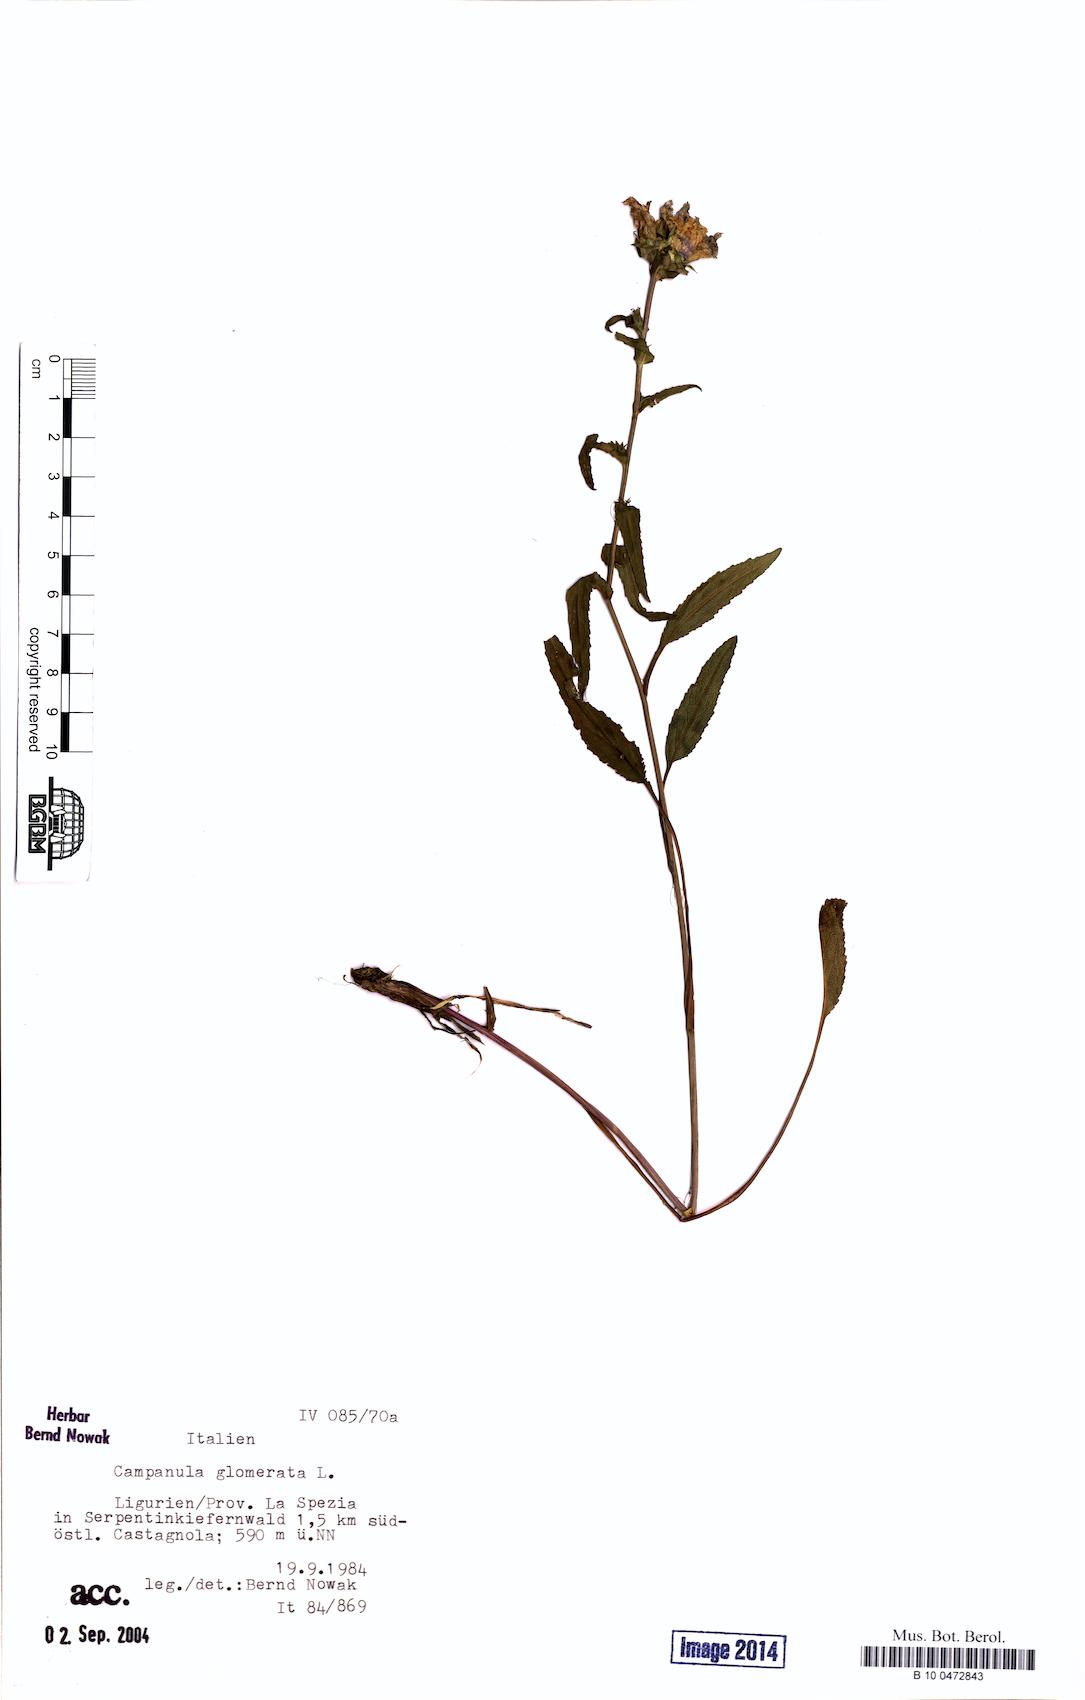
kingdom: Plantae
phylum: Tracheophyta
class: Magnoliopsida
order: Asterales
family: Campanulaceae
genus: Campanula
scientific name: Campanula glomerata
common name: Clustered bellflower
